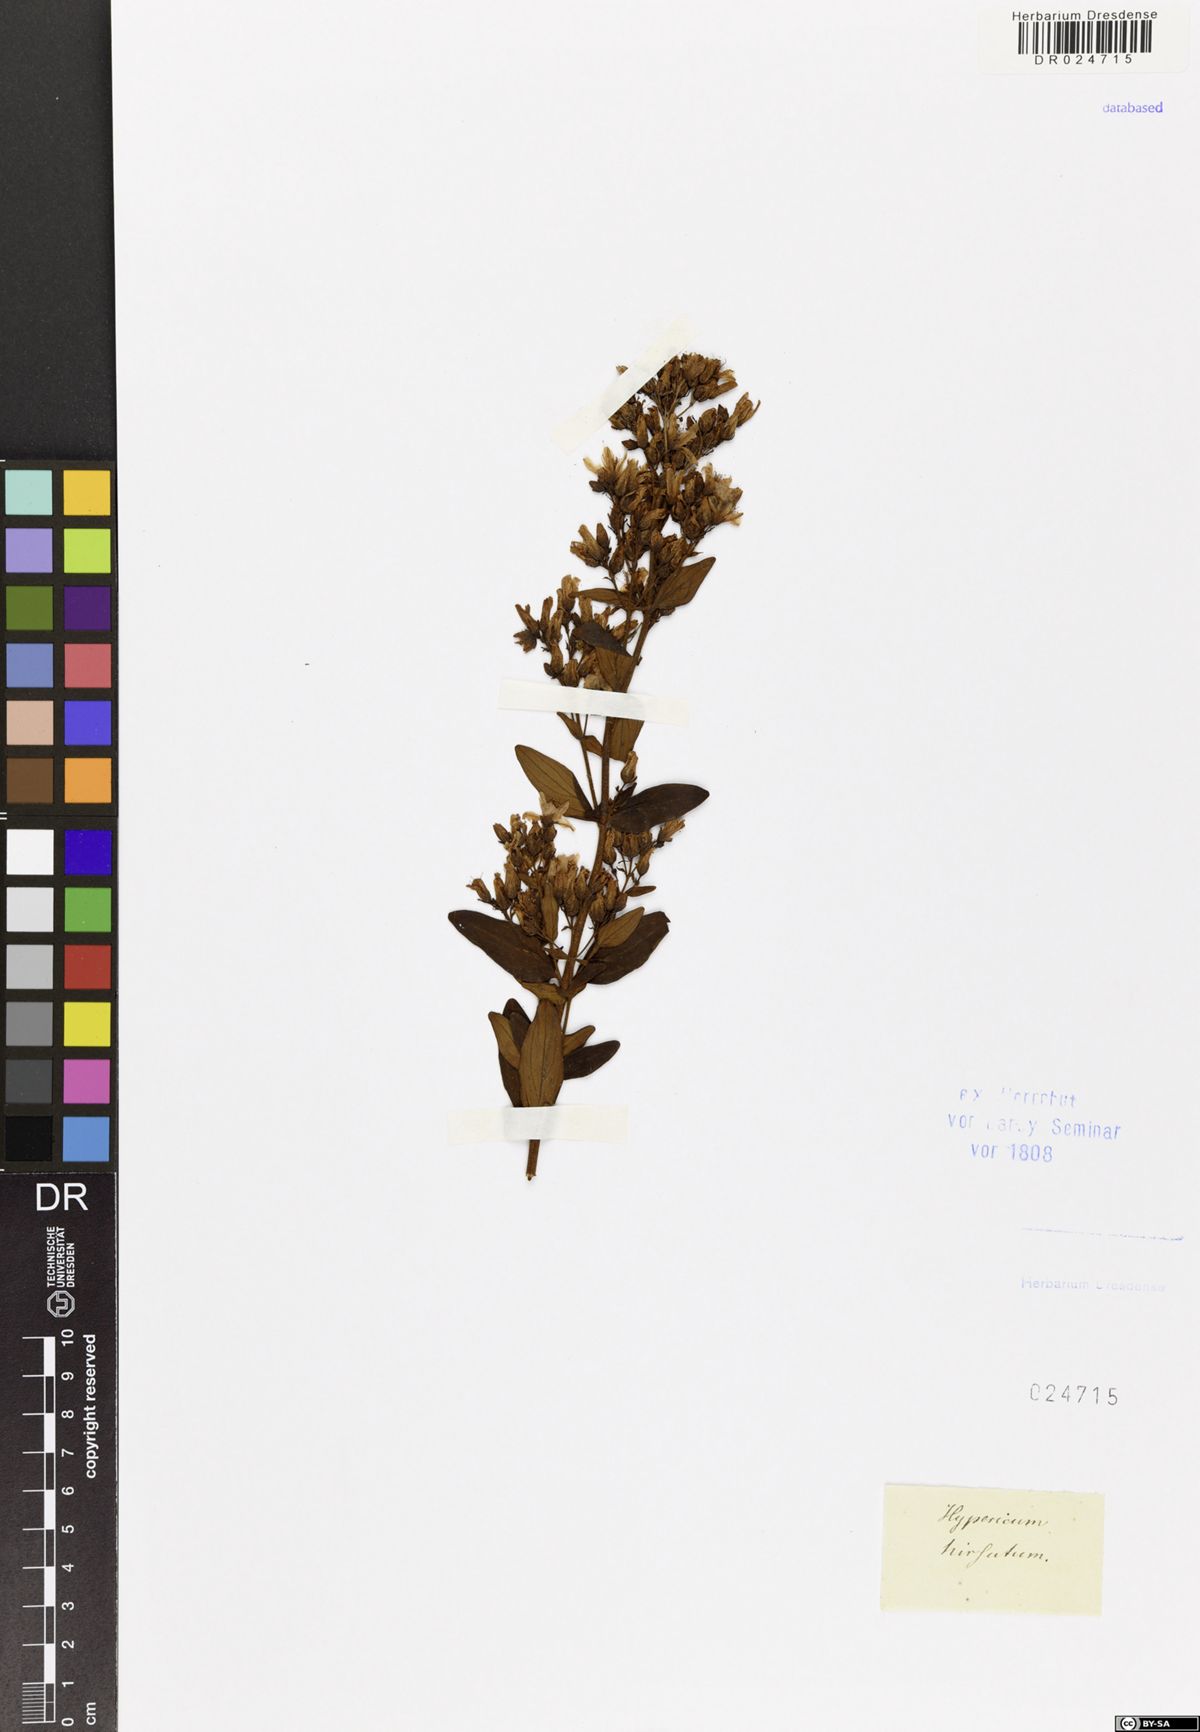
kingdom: Plantae
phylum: Tracheophyta
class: Magnoliopsida
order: Malpighiales
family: Hypericaceae
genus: Hypericum
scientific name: Hypericum hirsutum
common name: Hairy st. john's-wort
